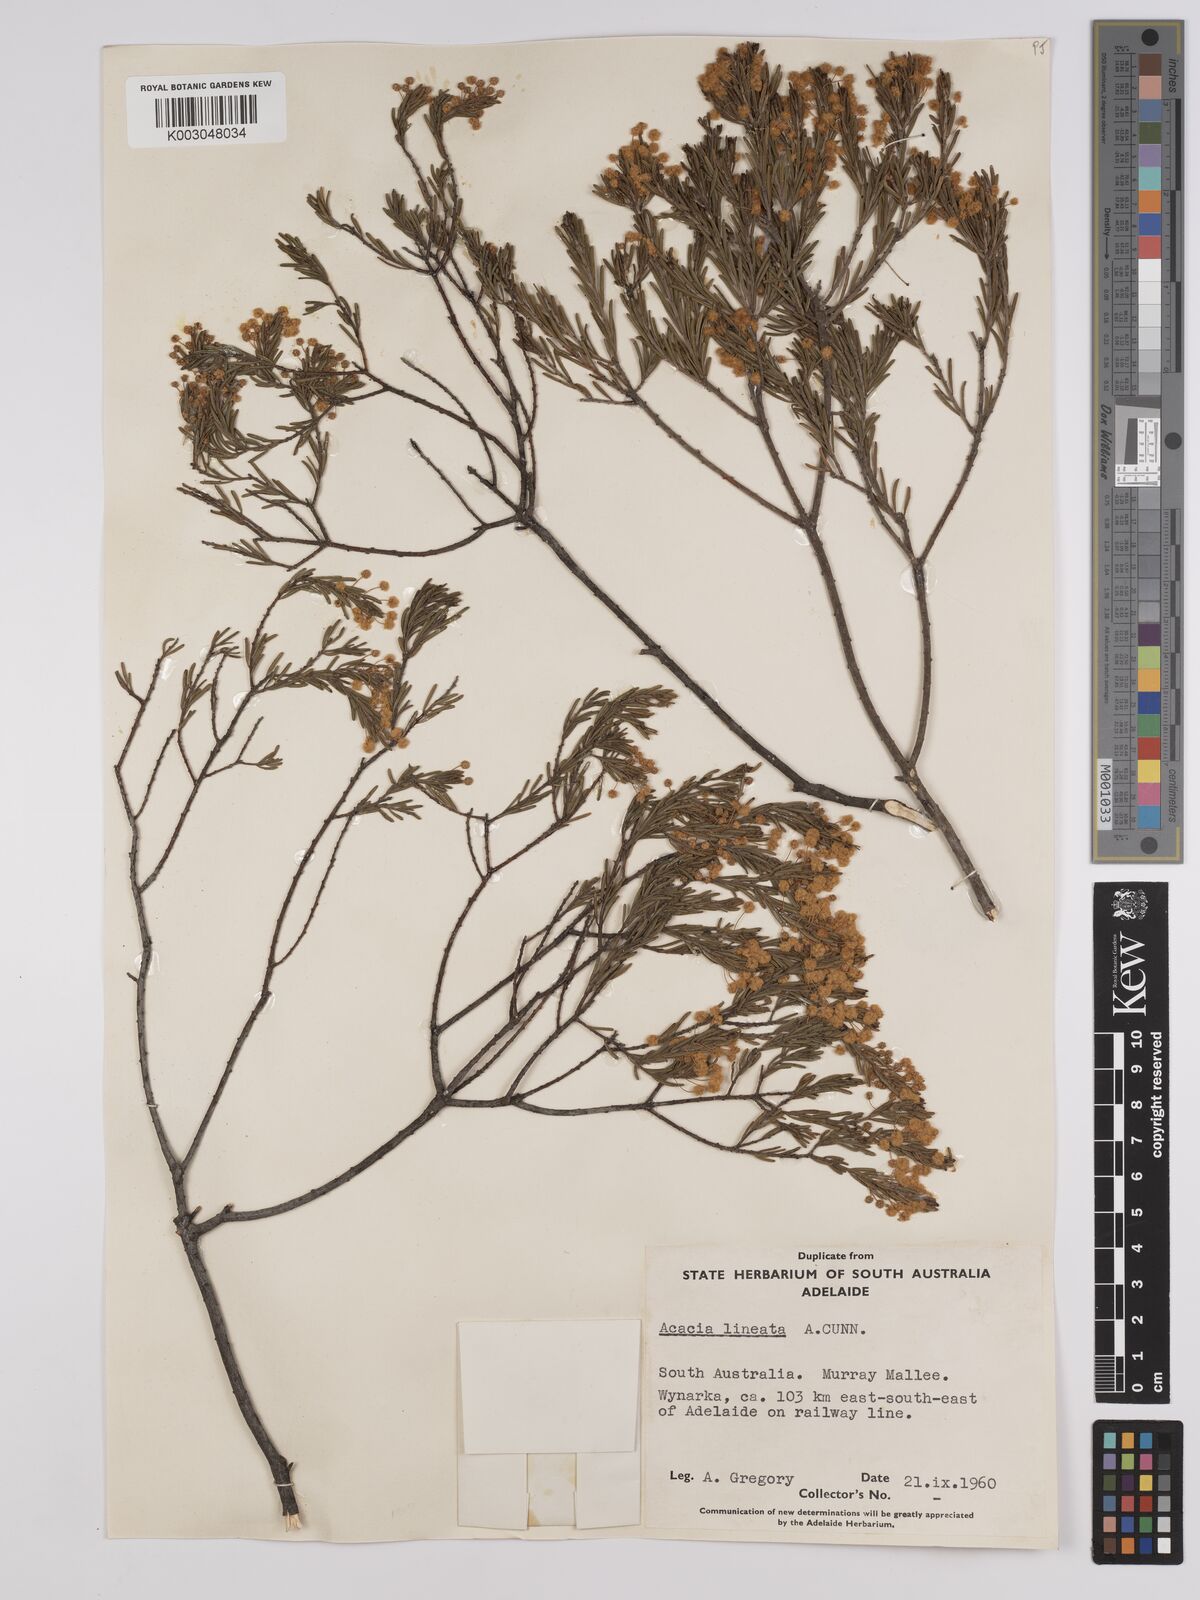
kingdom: Plantae
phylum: Tracheophyta
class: Magnoliopsida
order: Fabales
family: Fabaceae
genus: Acacia
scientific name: Acacia lineata
